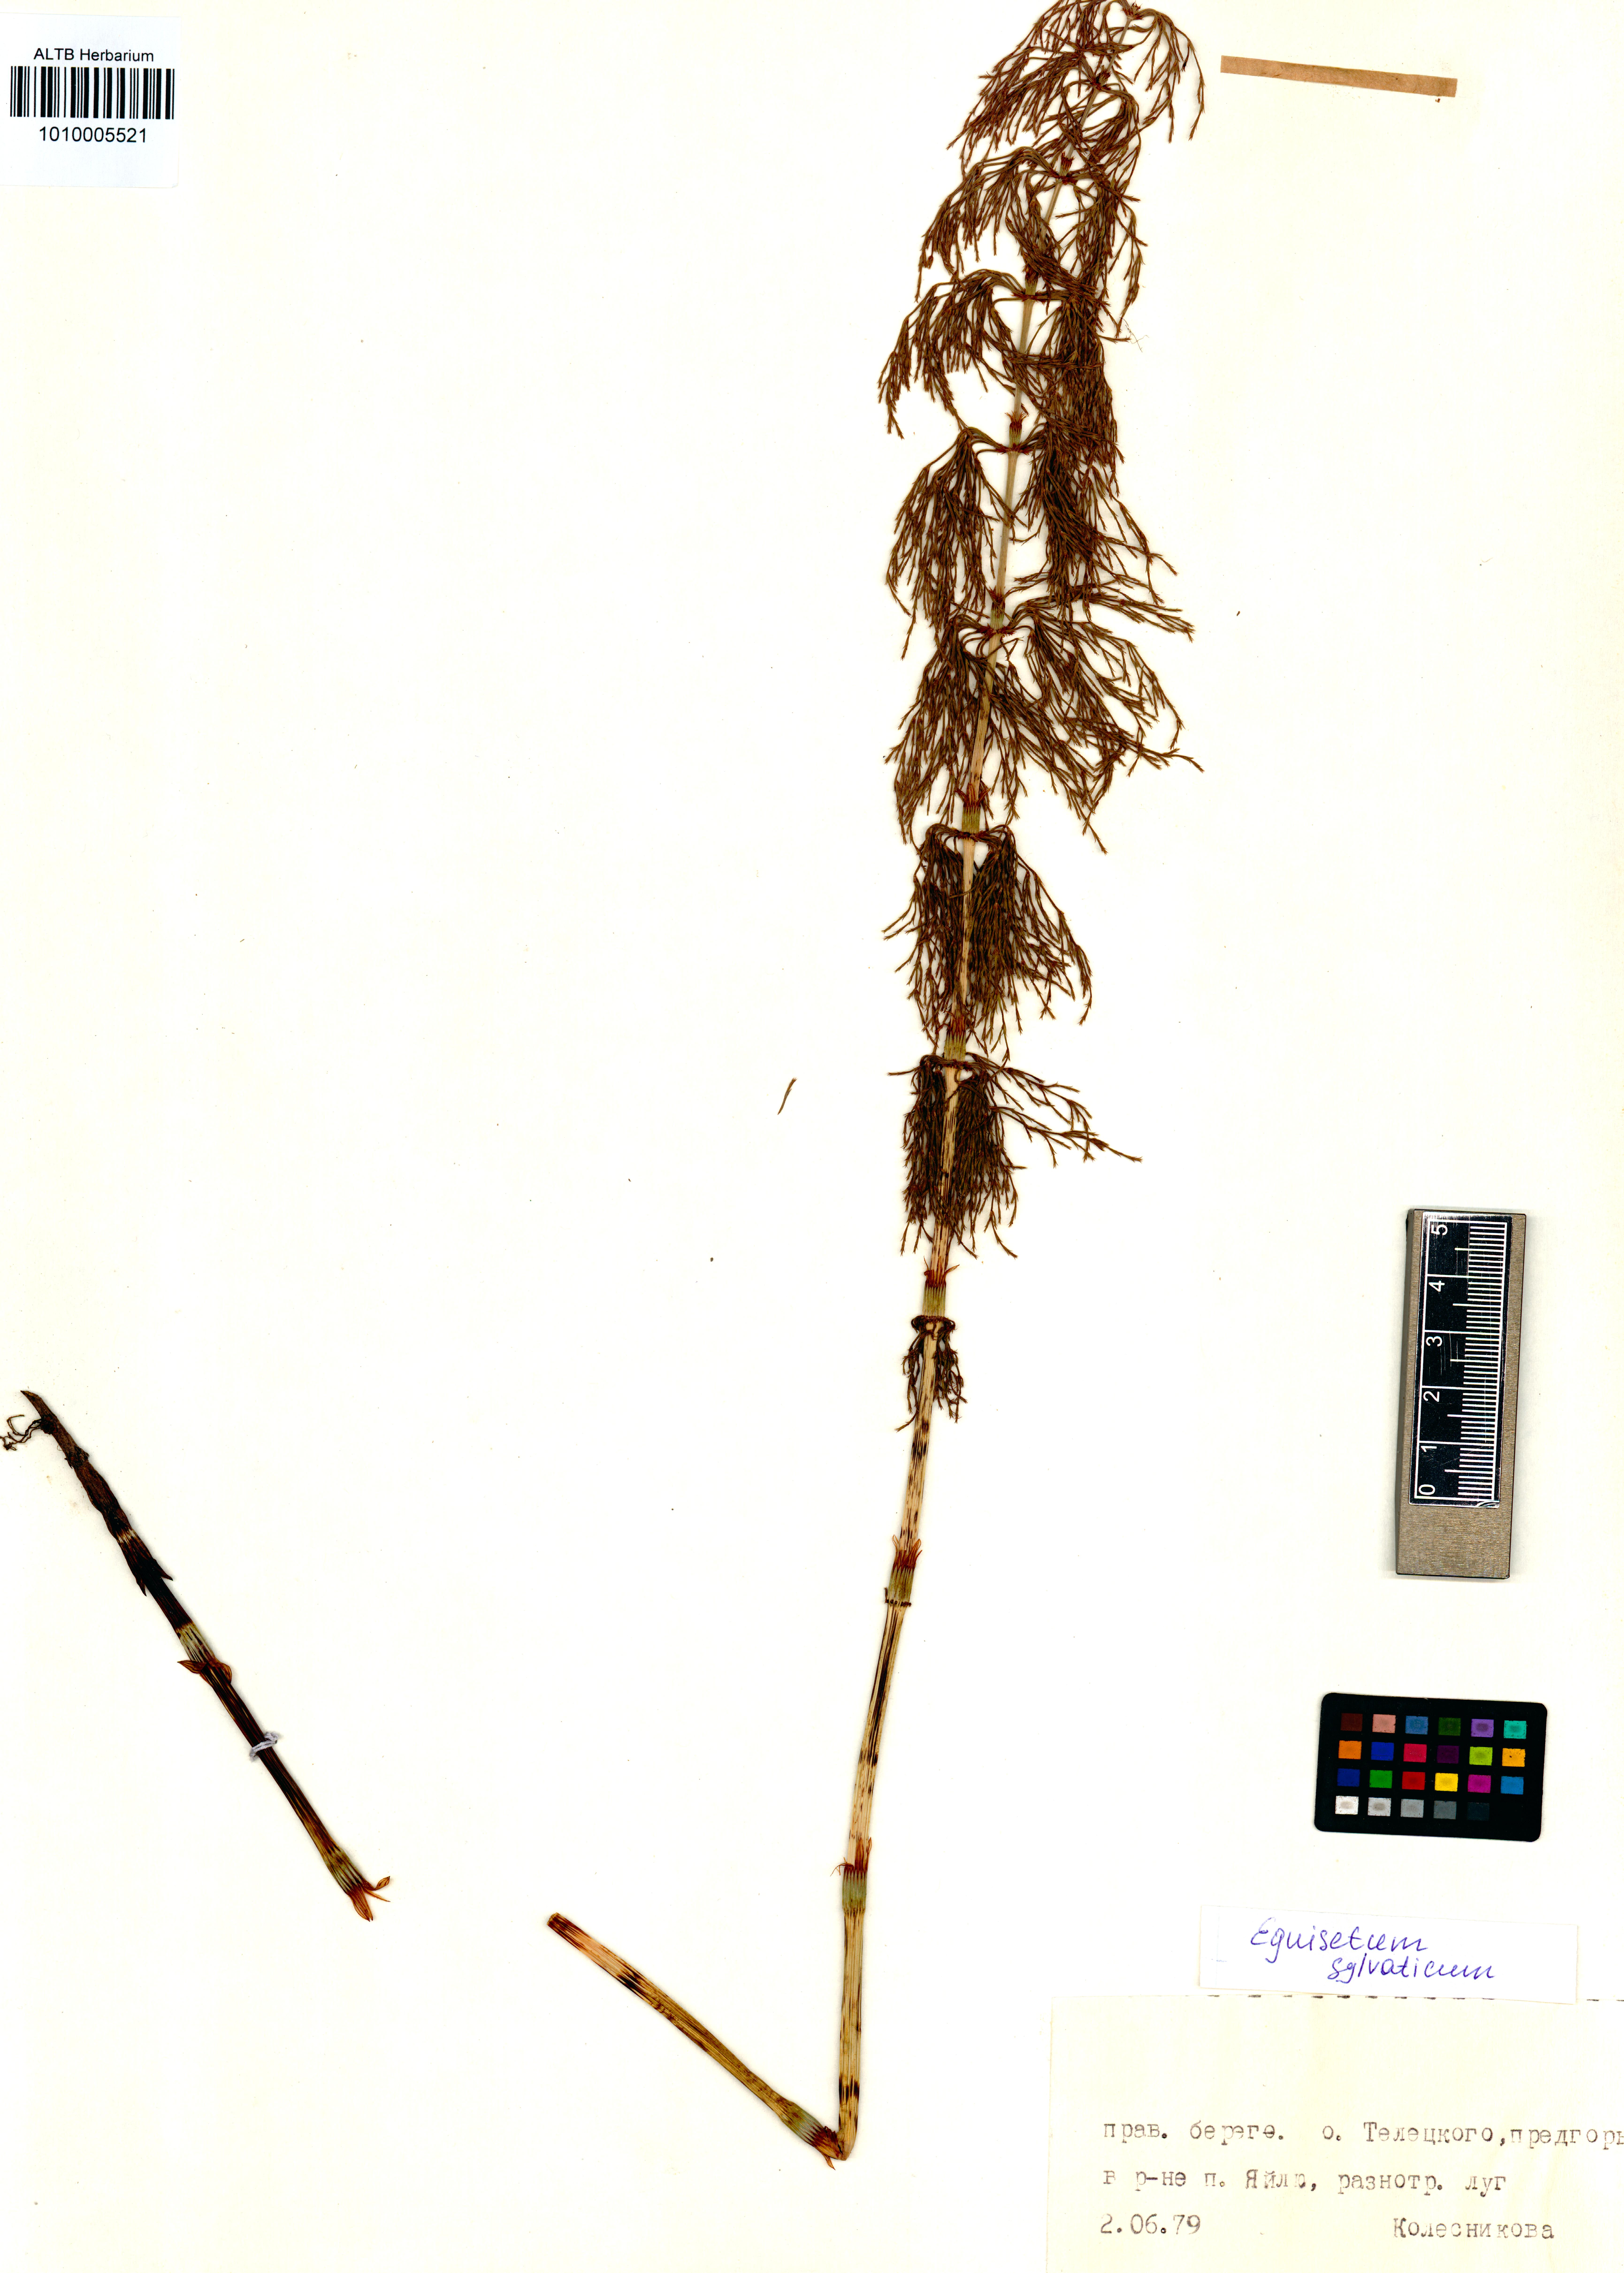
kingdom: Plantae
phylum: Tracheophyta
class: Polypodiopsida
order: Equisetales
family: Equisetaceae
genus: Equisetum
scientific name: Equisetum sylvaticum
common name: Wood horsetail
